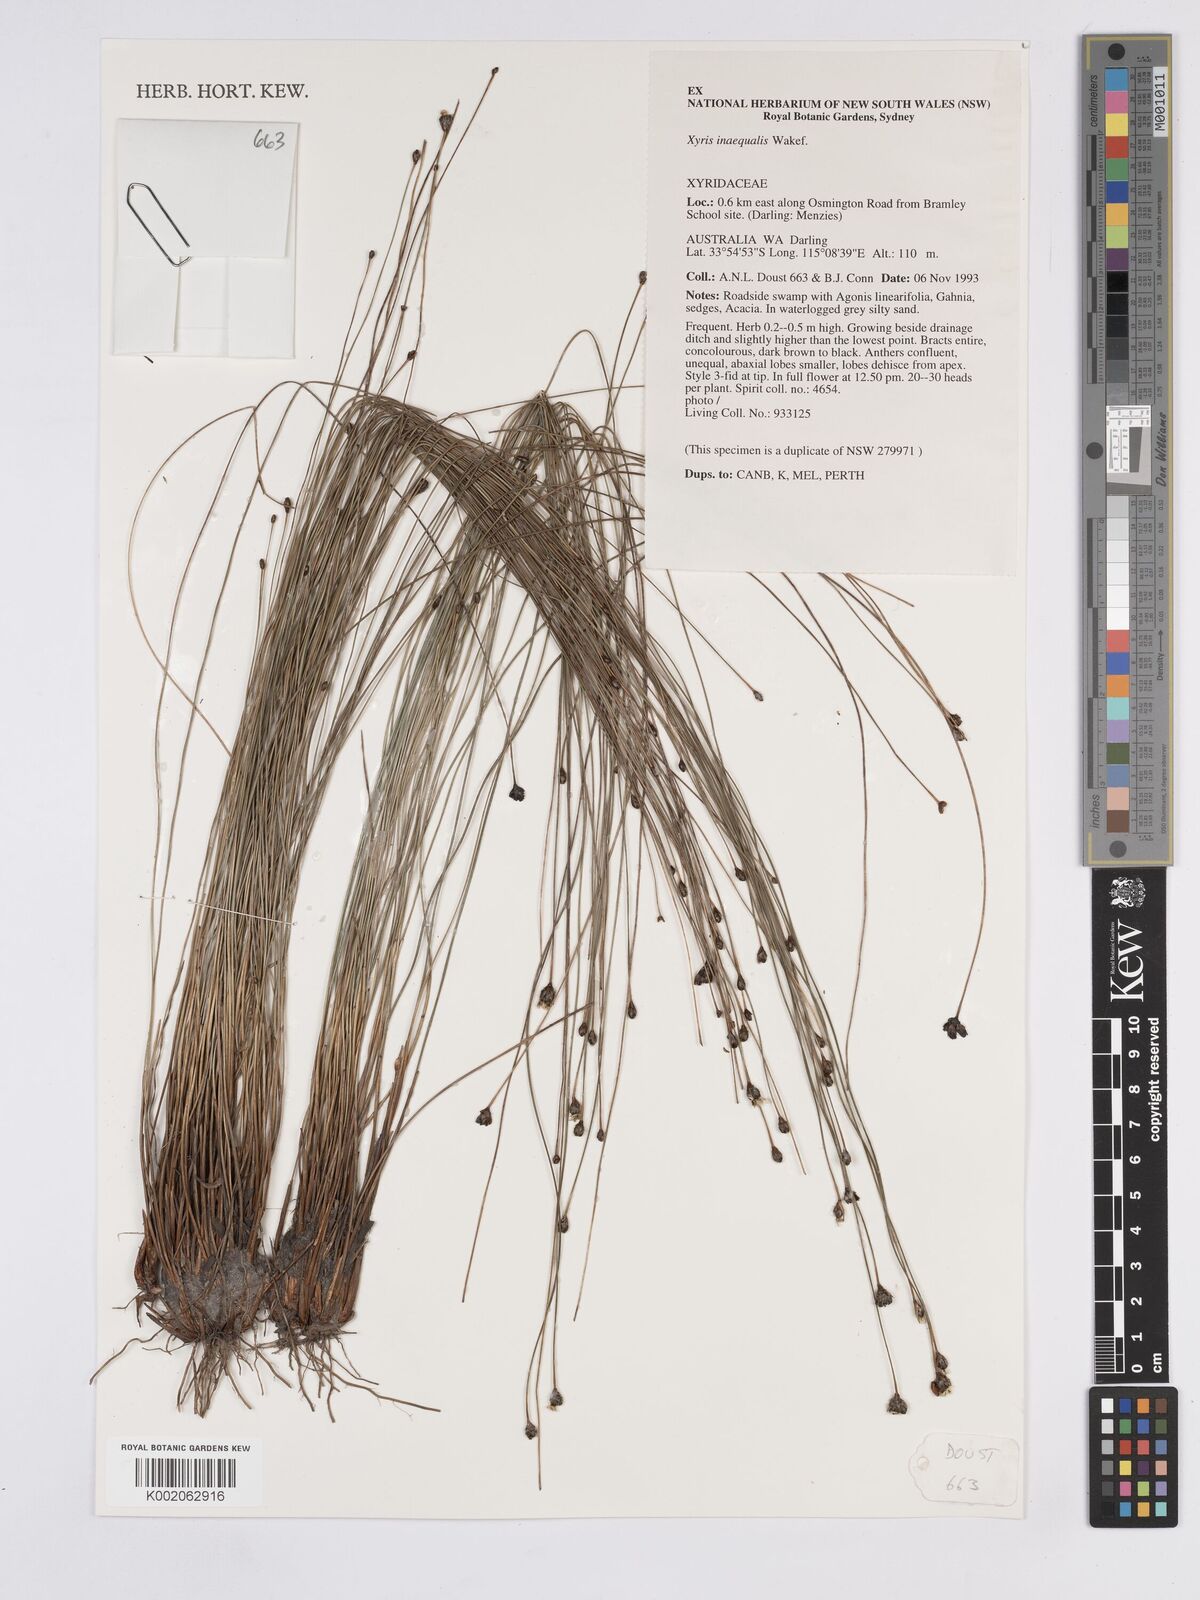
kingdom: Plantae
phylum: Tracheophyta
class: Liliopsida
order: Poales
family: Xyridaceae
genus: Xyris
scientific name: Xyris inaequalis
